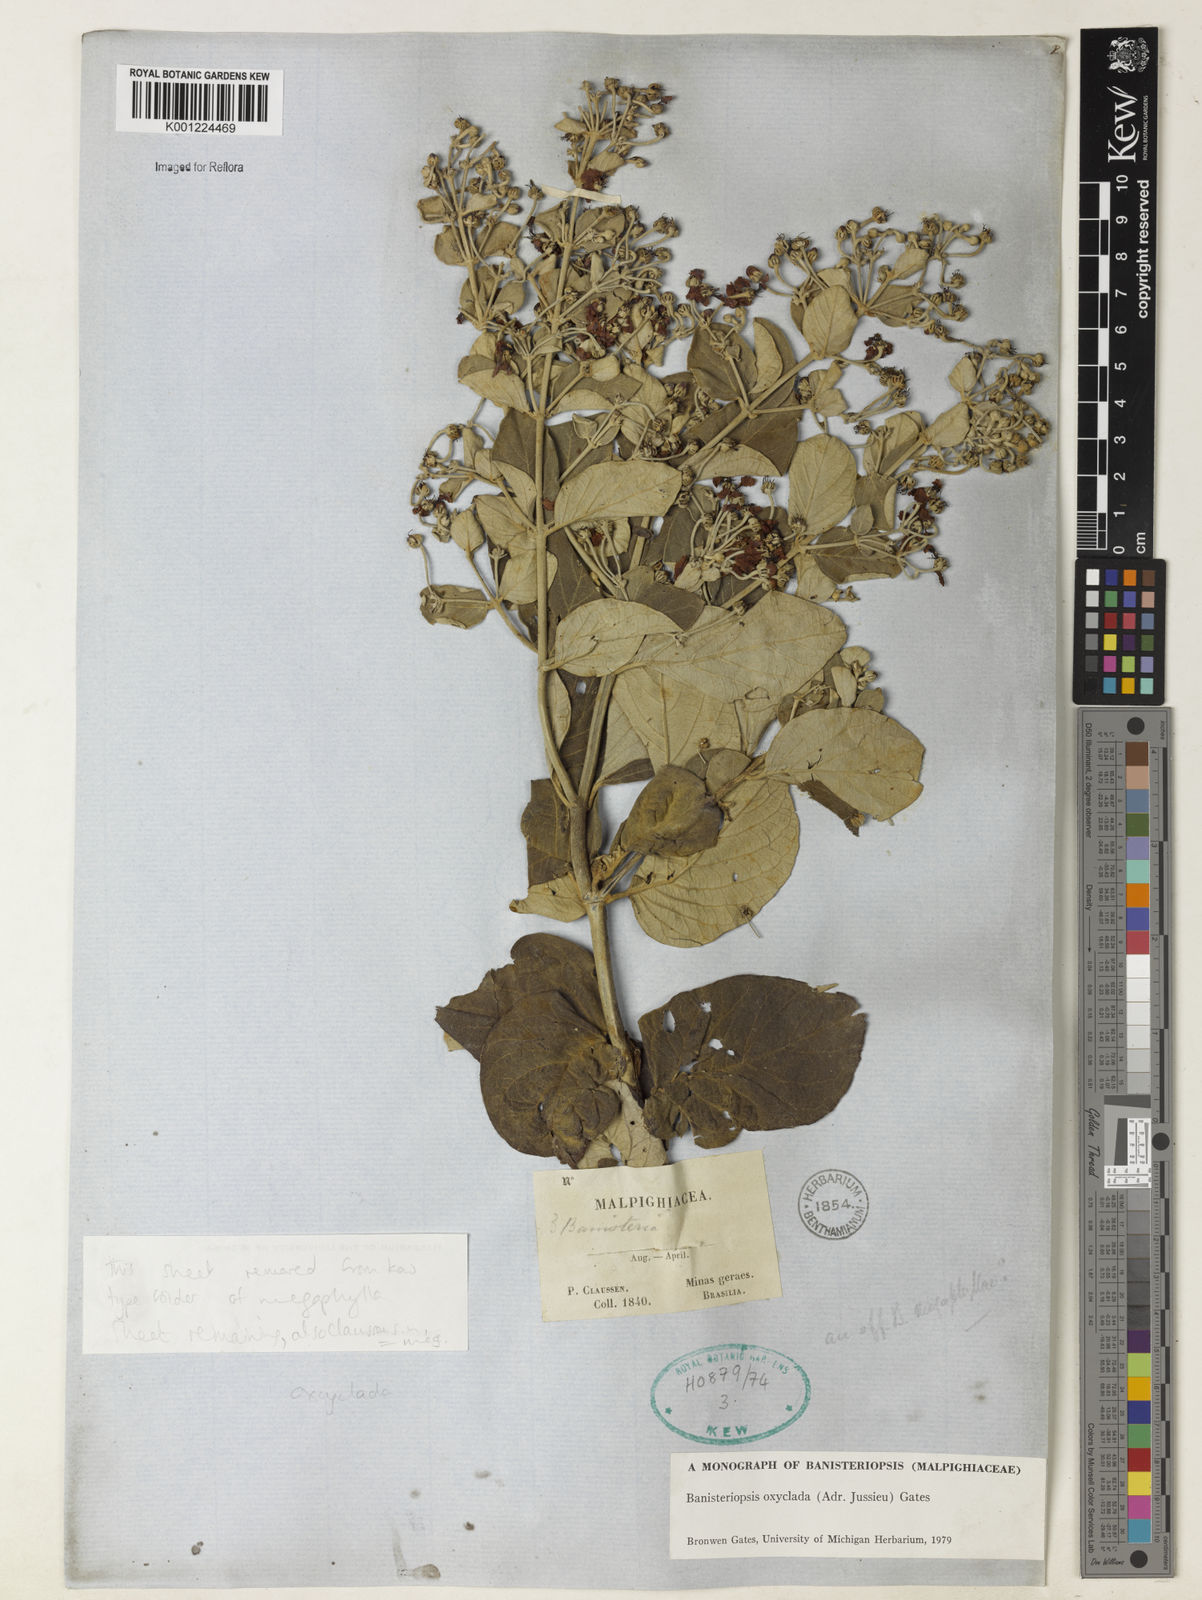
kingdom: Plantae
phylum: Tracheophyta
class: Magnoliopsida
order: Malpighiales
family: Malpighiaceae
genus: Banisteriopsis
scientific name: Banisteriopsis oxyclada
